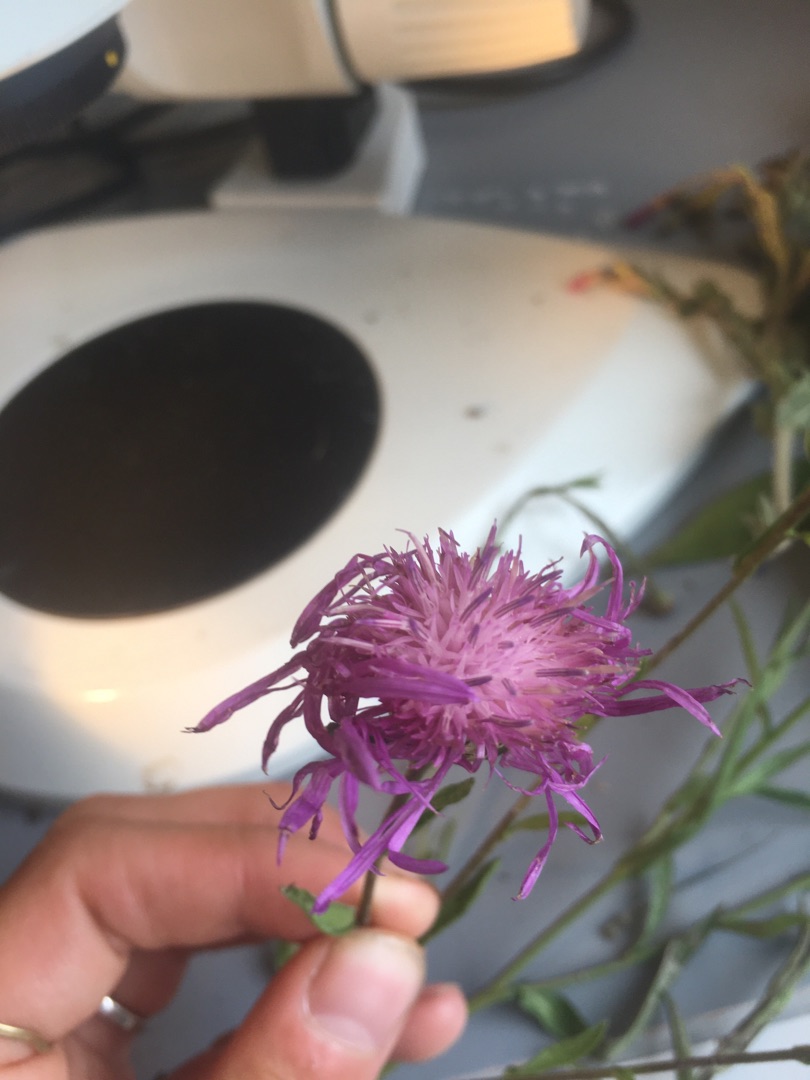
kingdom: Plantae
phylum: Tracheophyta
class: Magnoliopsida
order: Asterales
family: Asteraceae
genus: Centaurea
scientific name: Centaurea jacea
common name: Almindelig knopurt
